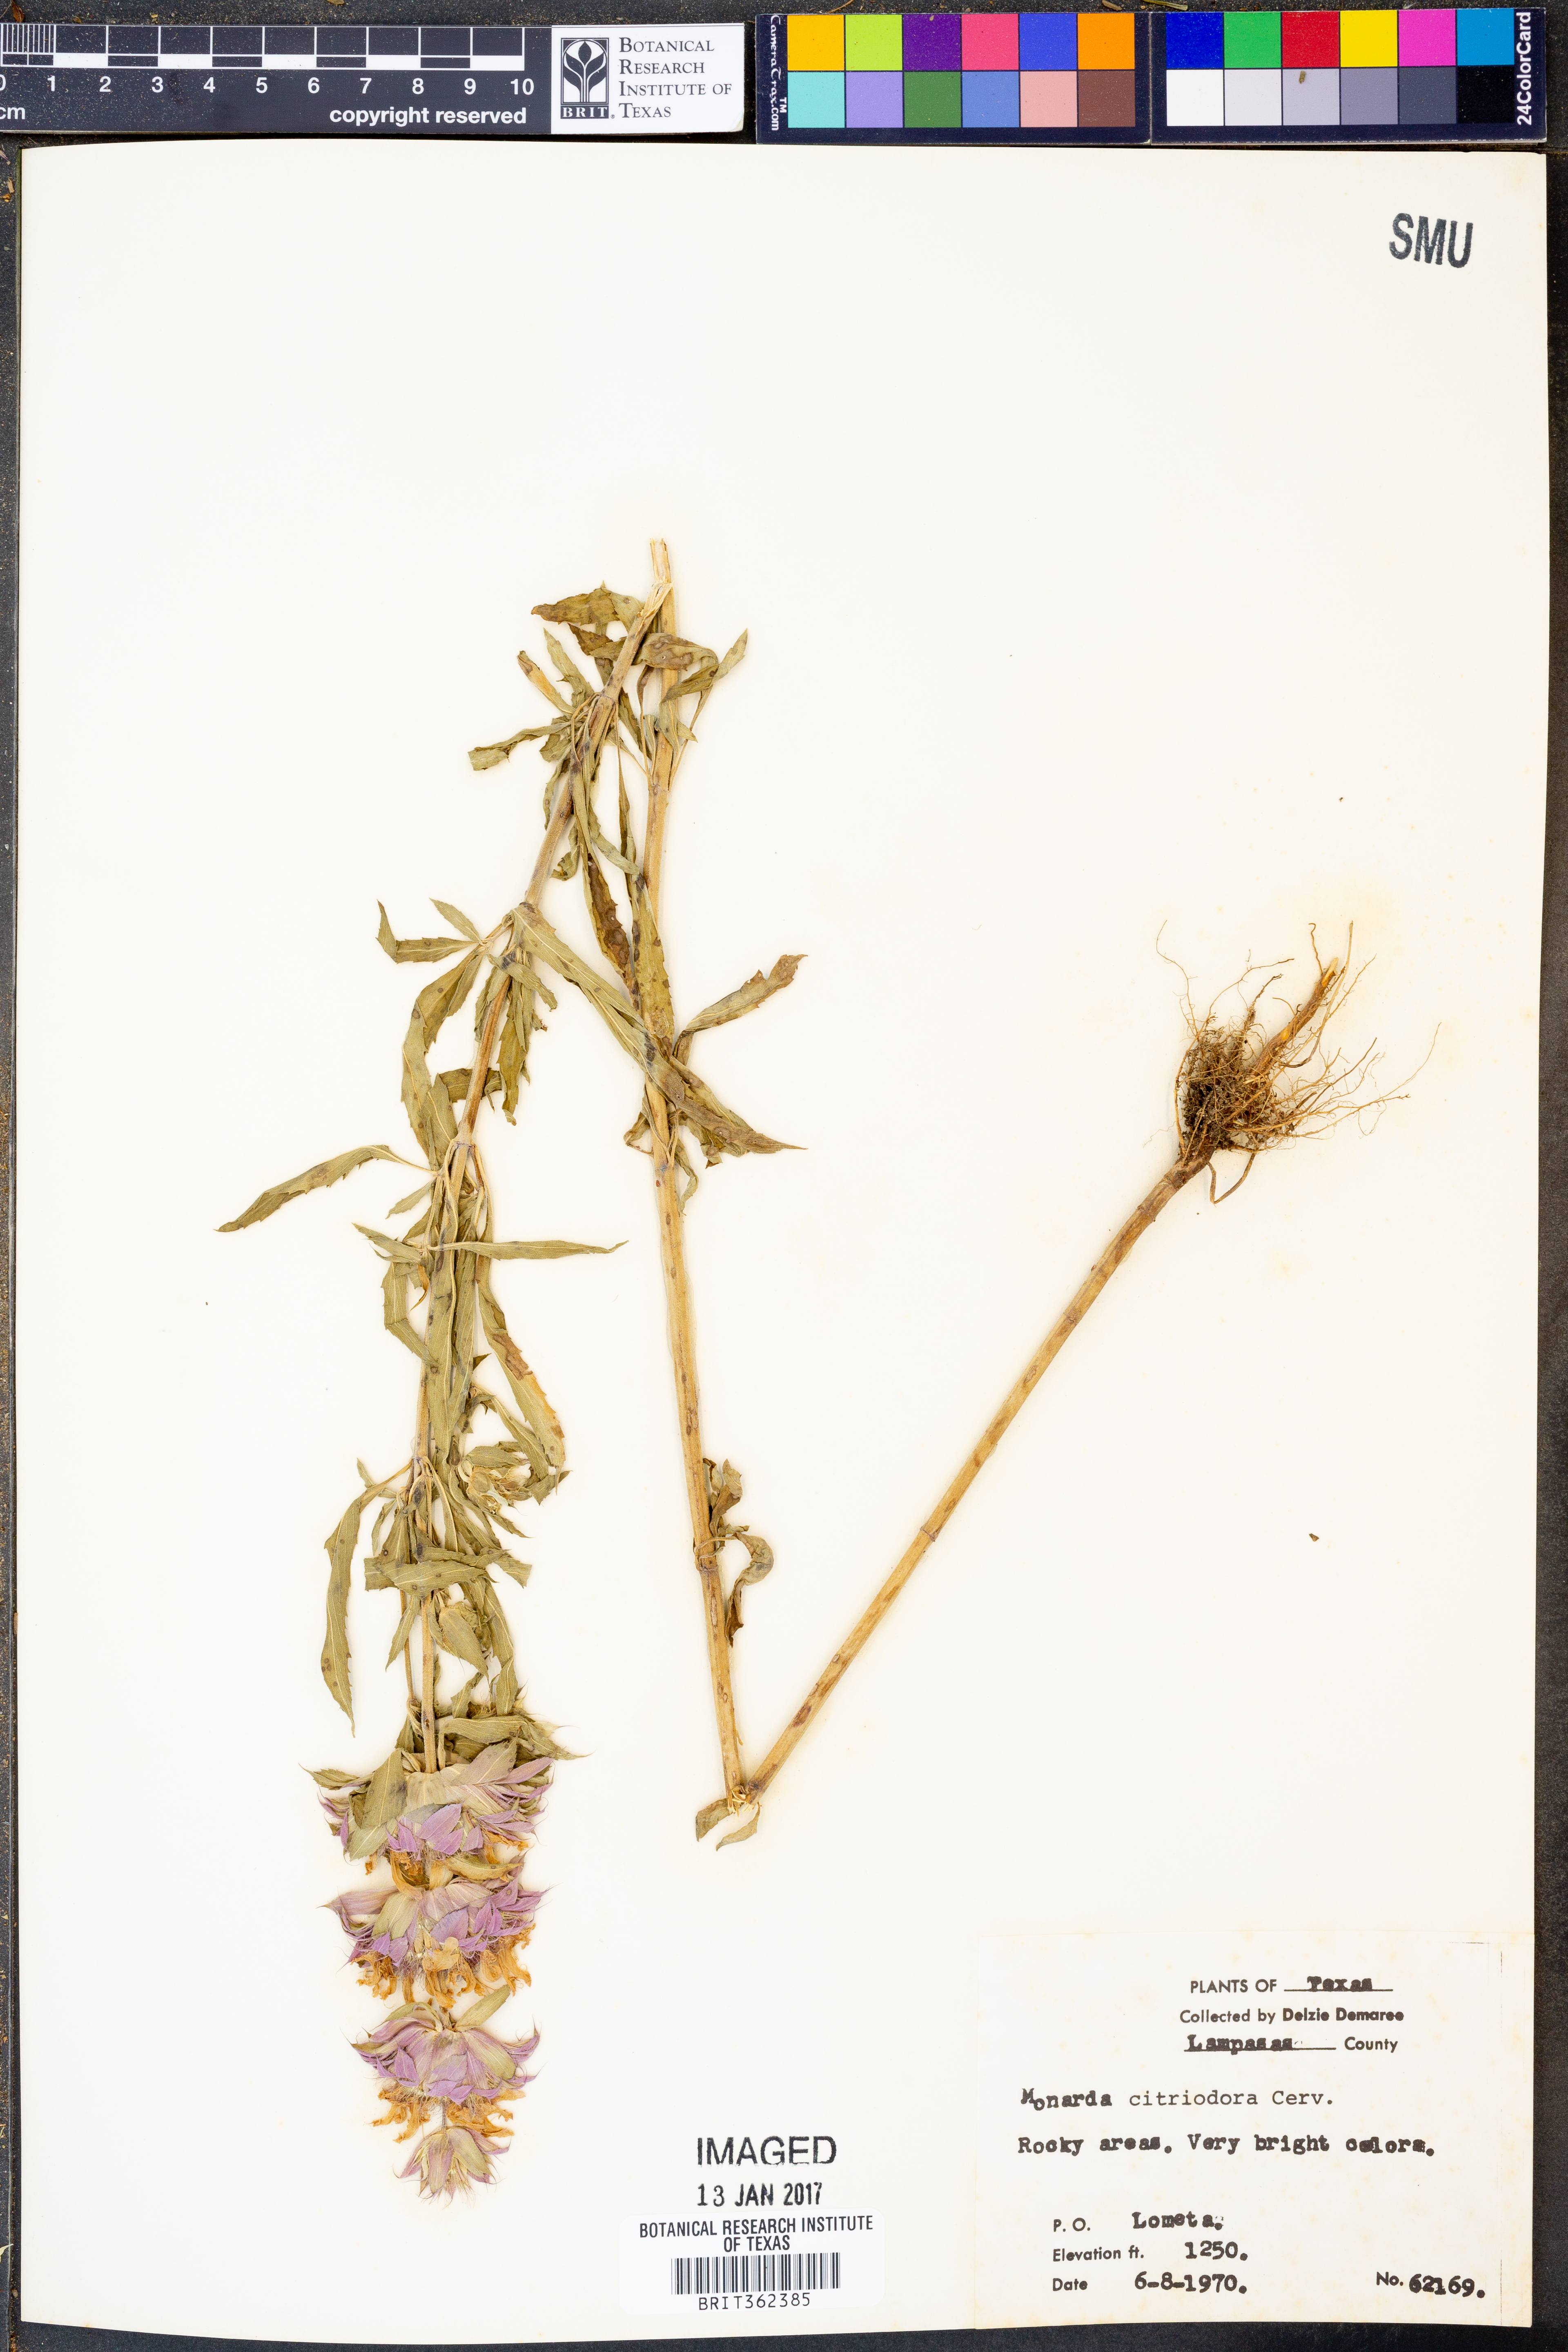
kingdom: Plantae
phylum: Tracheophyta
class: Magnoliopsida
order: Lamiales
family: Lamiaceae
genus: Monarda
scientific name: Monarda citriodora
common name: Lemon beebalm
